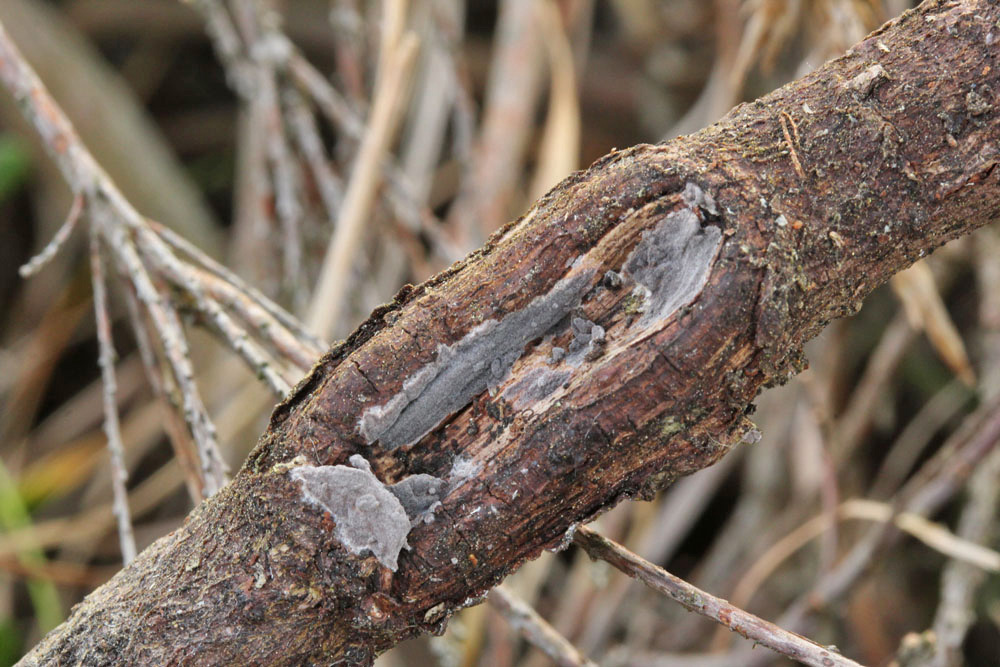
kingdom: Fungi
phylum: Basidiomycota
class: Agaricomycetes
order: Russulales
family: Peniophoraceae
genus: Peniophora
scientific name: Peniophora lycii
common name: grynet voksskind
